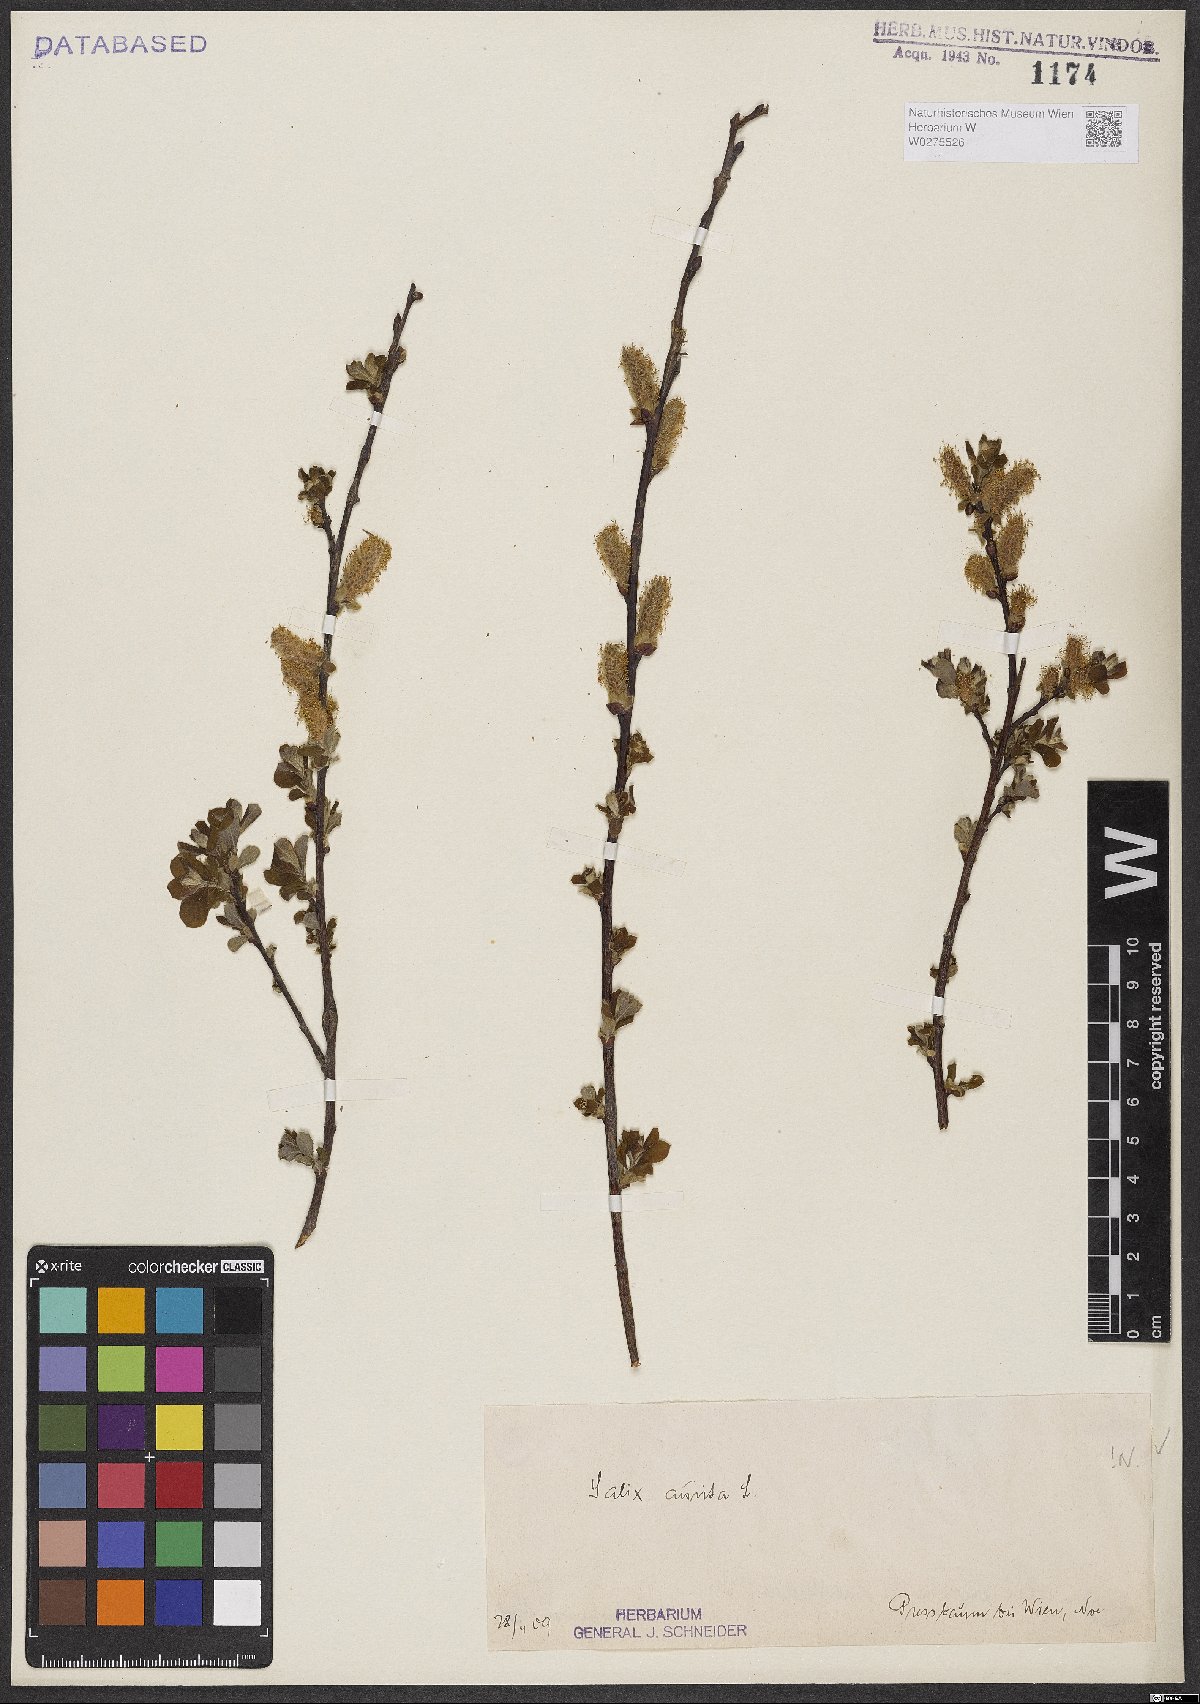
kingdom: Plantae
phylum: Tracheophyta
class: Magnoliopsida
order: Malpighiales
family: Salicaceae
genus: Salix
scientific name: Salix aurita
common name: Eared willow
